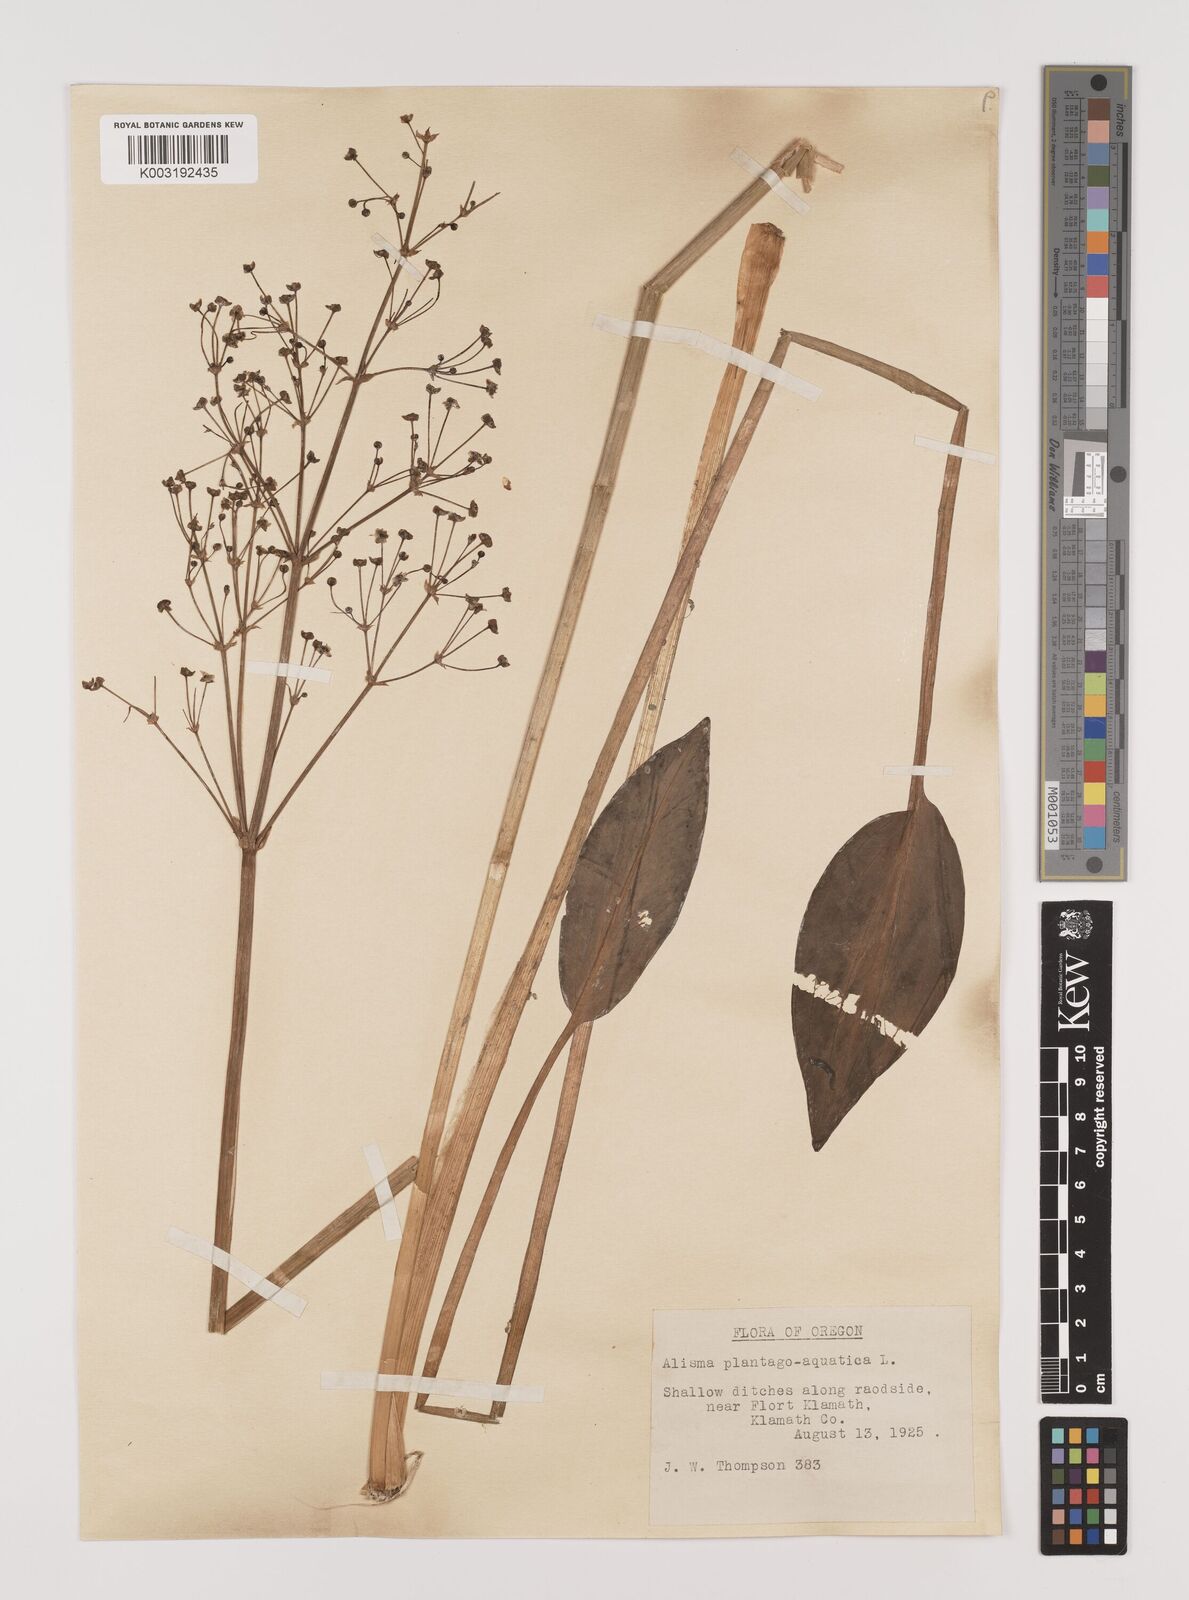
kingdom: Plantae
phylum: Tracheophyta
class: Liliopsida
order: Alismatales
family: Alismataceae
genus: Alisma
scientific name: Alisma triviale
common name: Northern water-plantain
